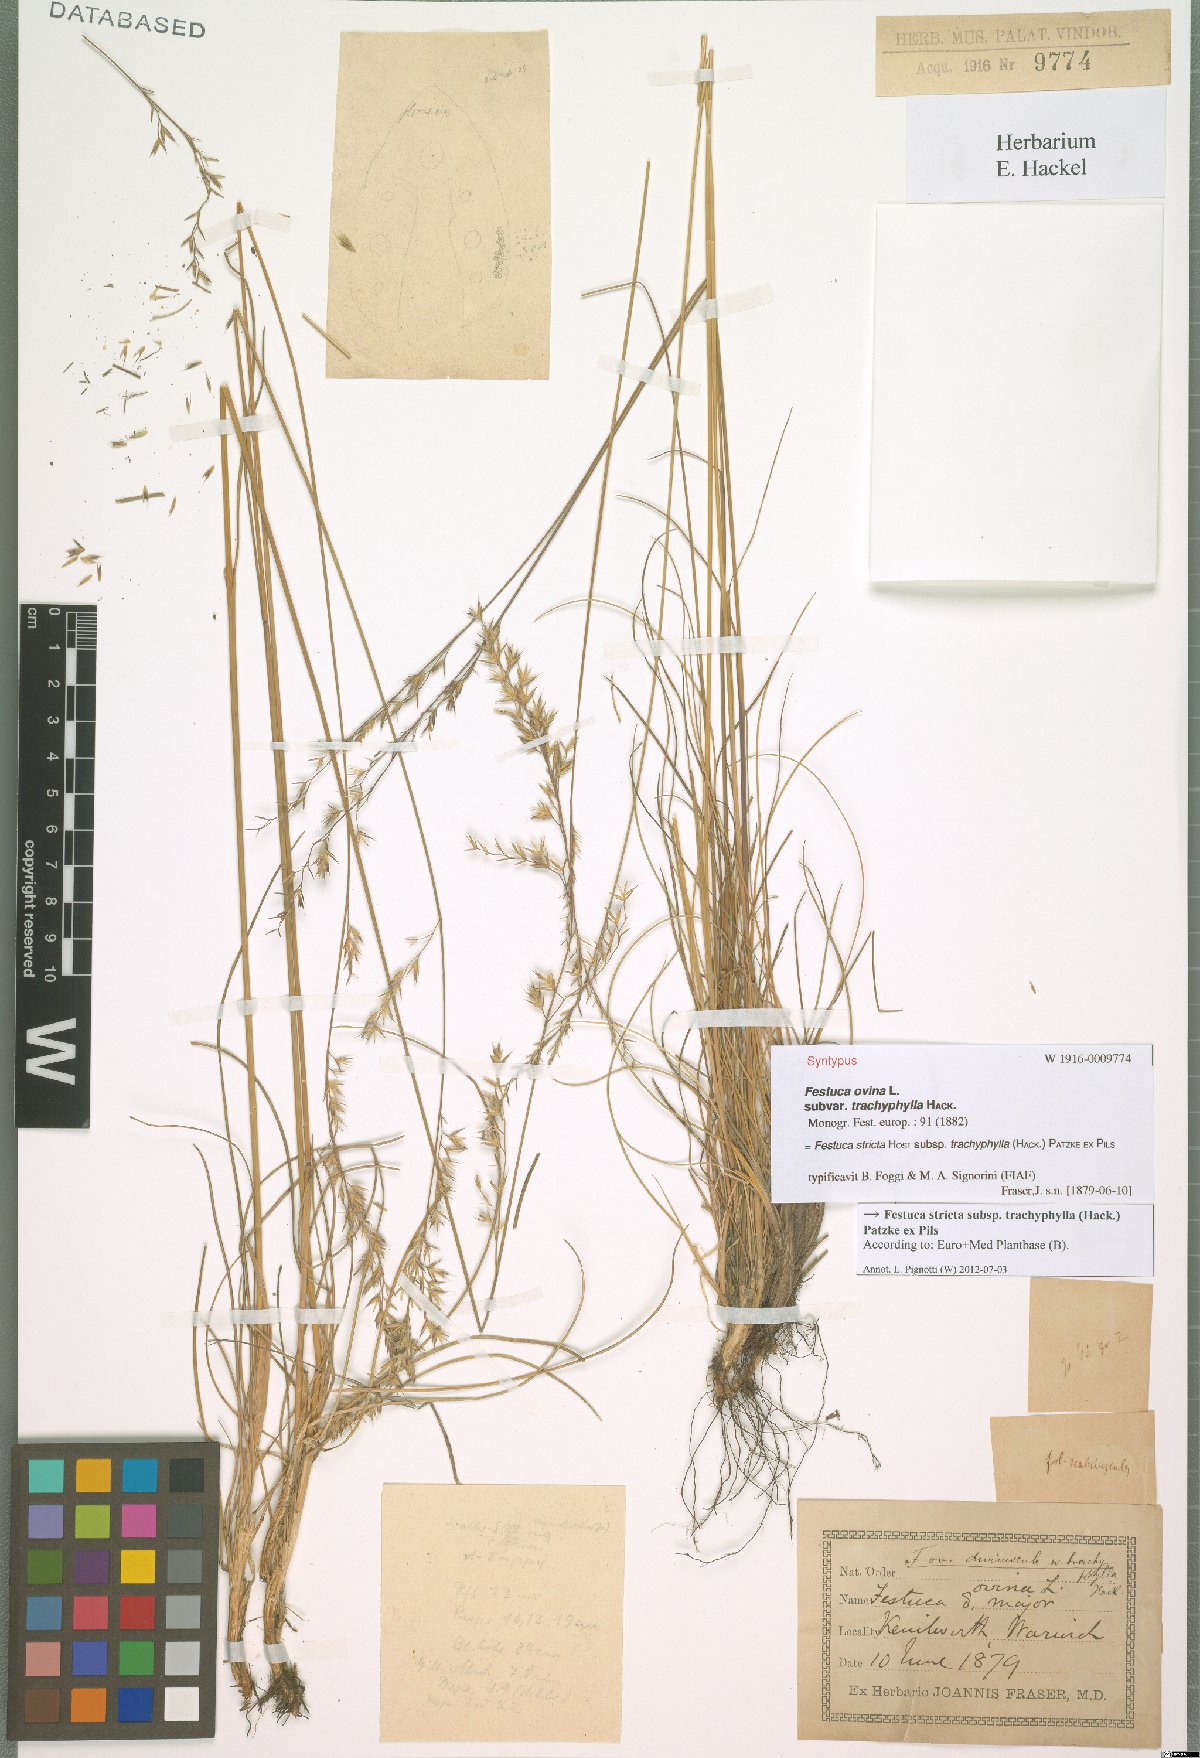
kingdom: Plantae
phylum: Tracheophyta
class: Liliopsida
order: Poales
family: Poaceae
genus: Festuca
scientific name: Festuca trachyphylla
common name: Hard fescue
